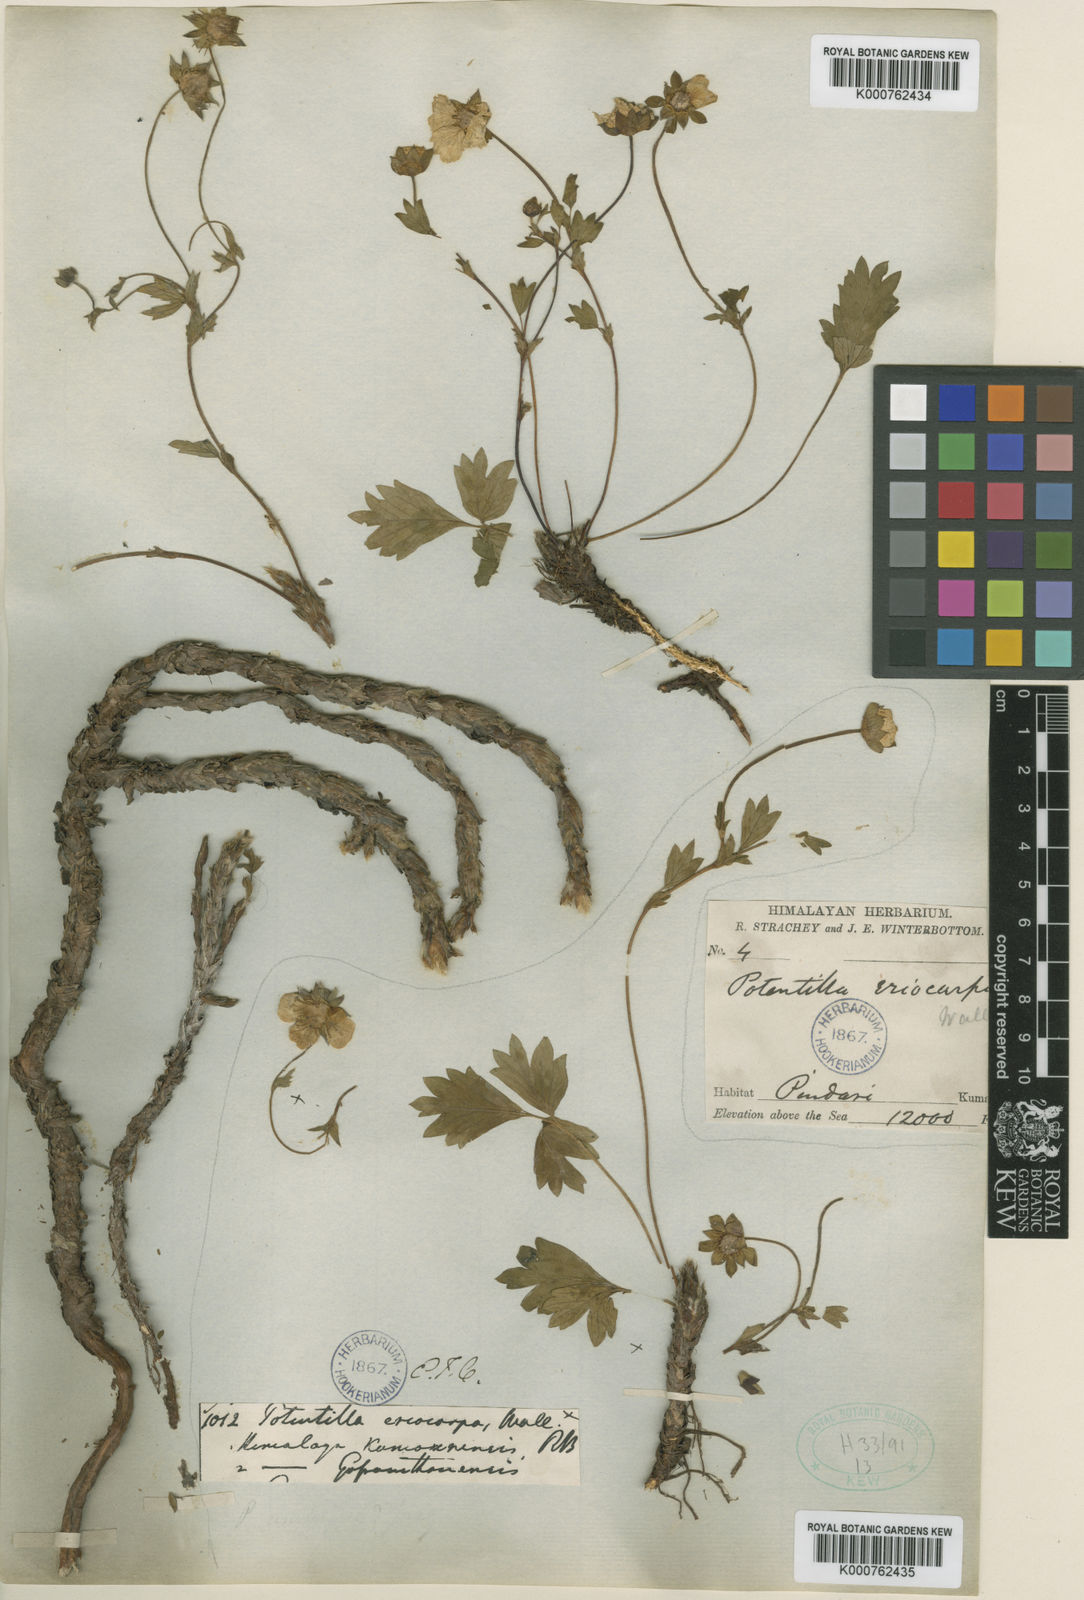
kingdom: Plantae
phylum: Tracheophyta
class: Magnoliopsida
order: Rosales
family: Rosaceae
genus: Potentilla
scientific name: Potentilla
